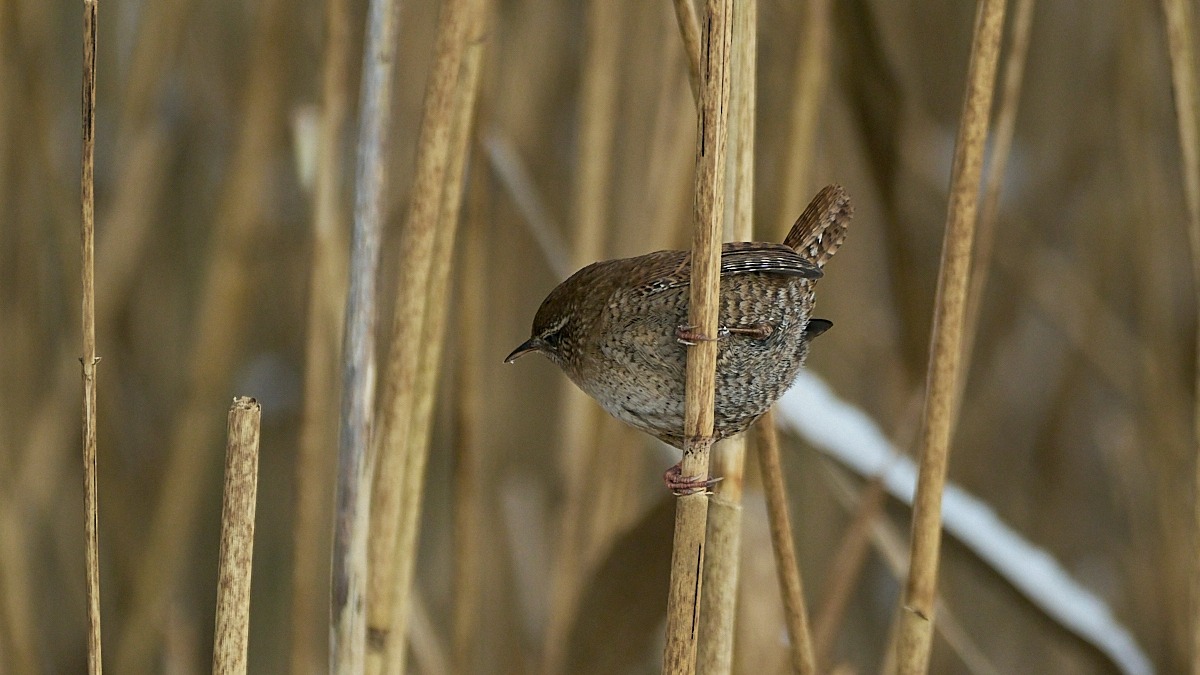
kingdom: Animalia
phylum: Chordata
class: Aves
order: Passeriformes
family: Troglodytidae
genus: Troglodytes
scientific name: Troglodytes troglodytes
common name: Gærdesmutte
